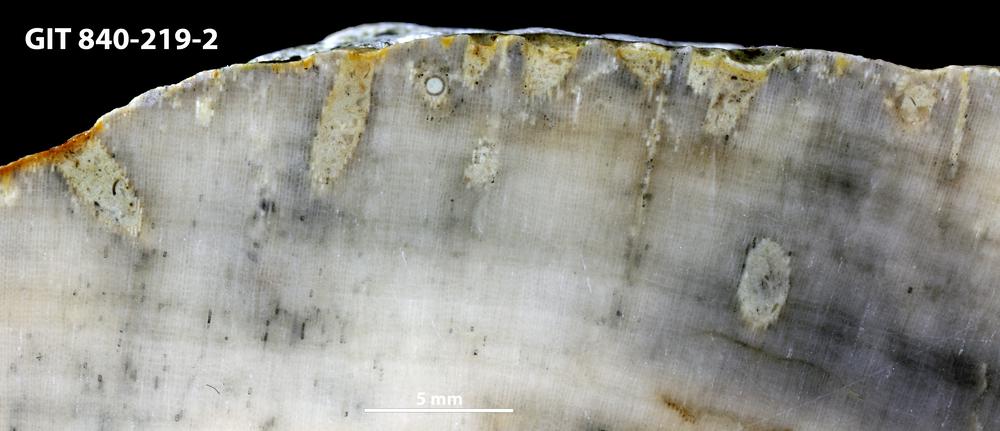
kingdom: Animalia
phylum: Sipuncula
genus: Trypanites
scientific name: Trypanites
